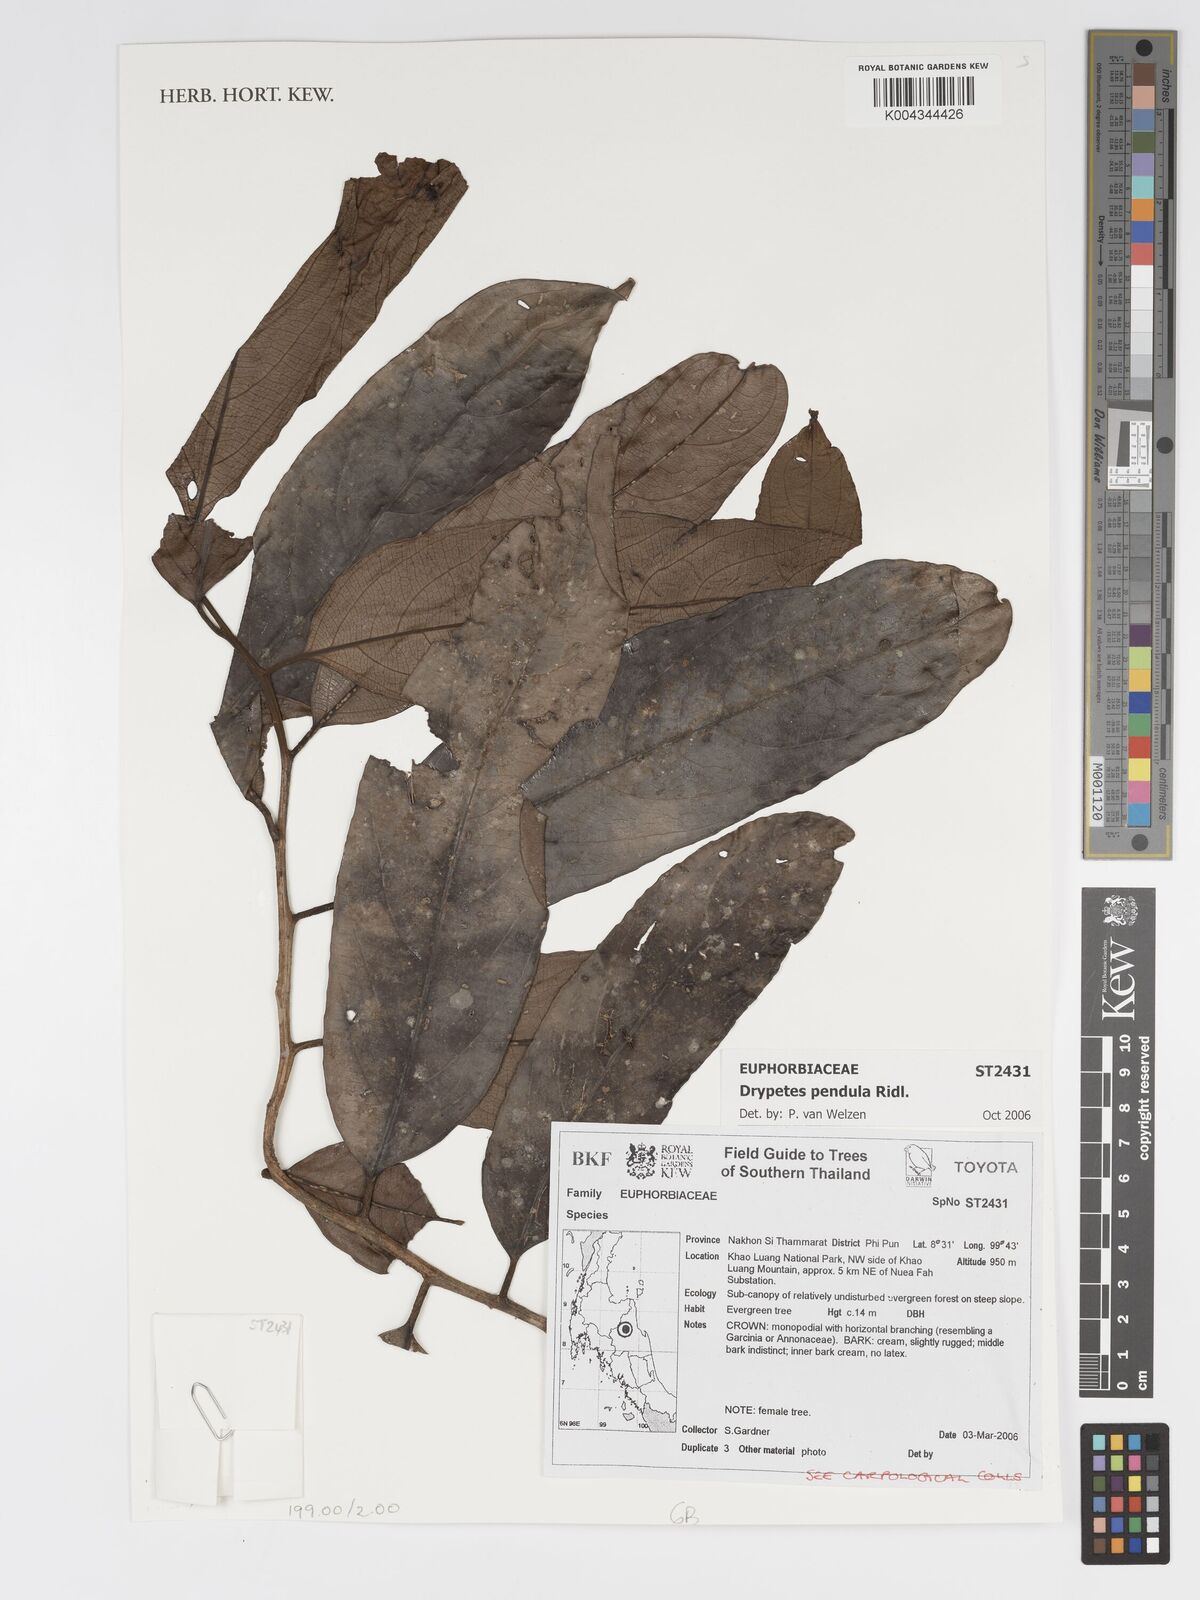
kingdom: Plantae
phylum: Tracheophyta
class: Magnoliopsida
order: Malpighiales
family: Putranjivaceae
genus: Drypetes
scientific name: Drypetes pendula
